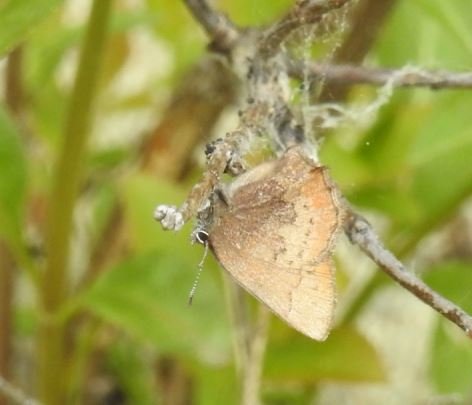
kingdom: Animalia
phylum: Arthropoda
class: Insecta
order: Lepidoptera
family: Lycaenidae
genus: Incisalia
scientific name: Incisalia irioides
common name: Brown Elfin
